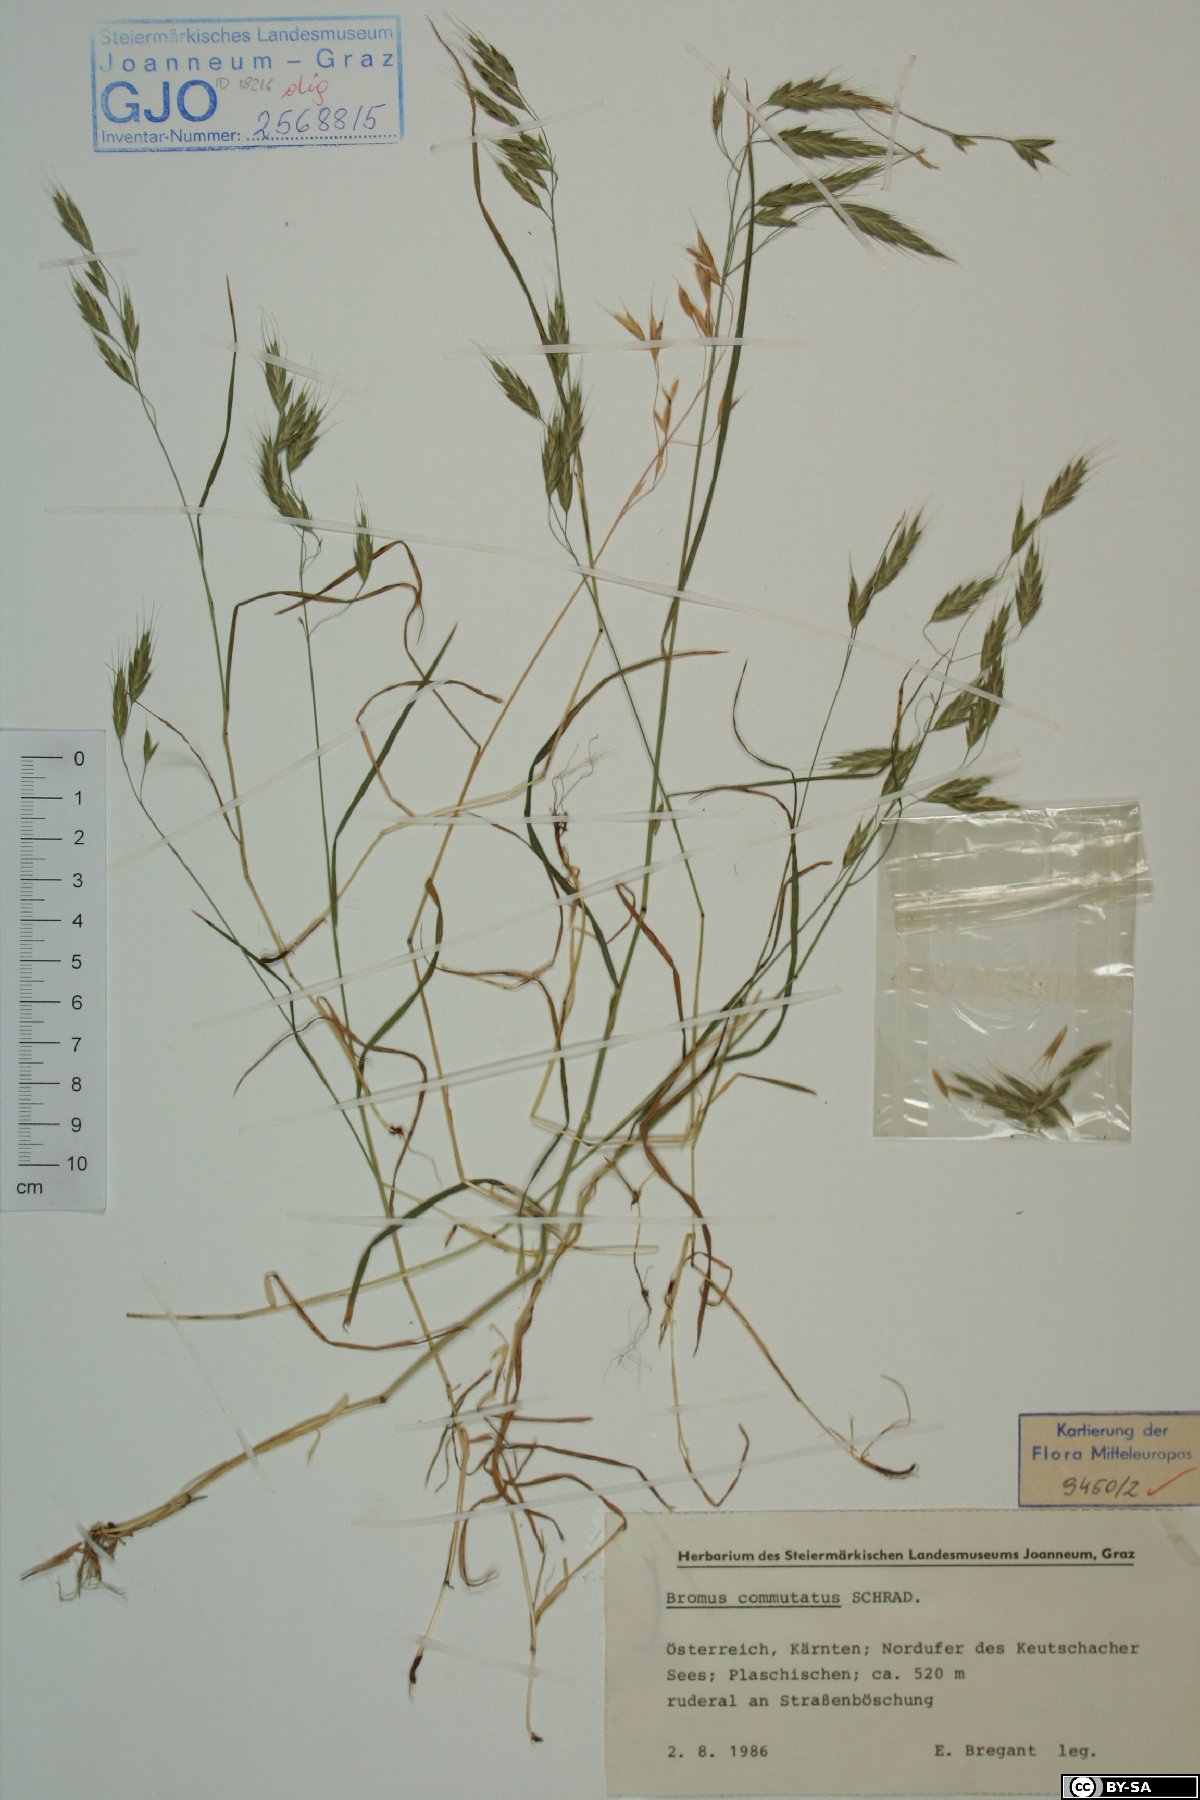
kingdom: Plantae
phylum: Tracheophyta
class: Liliopsida
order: Poales
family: Poaceae
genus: Bromus
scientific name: Bromus commutatus
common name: Meadow brome
